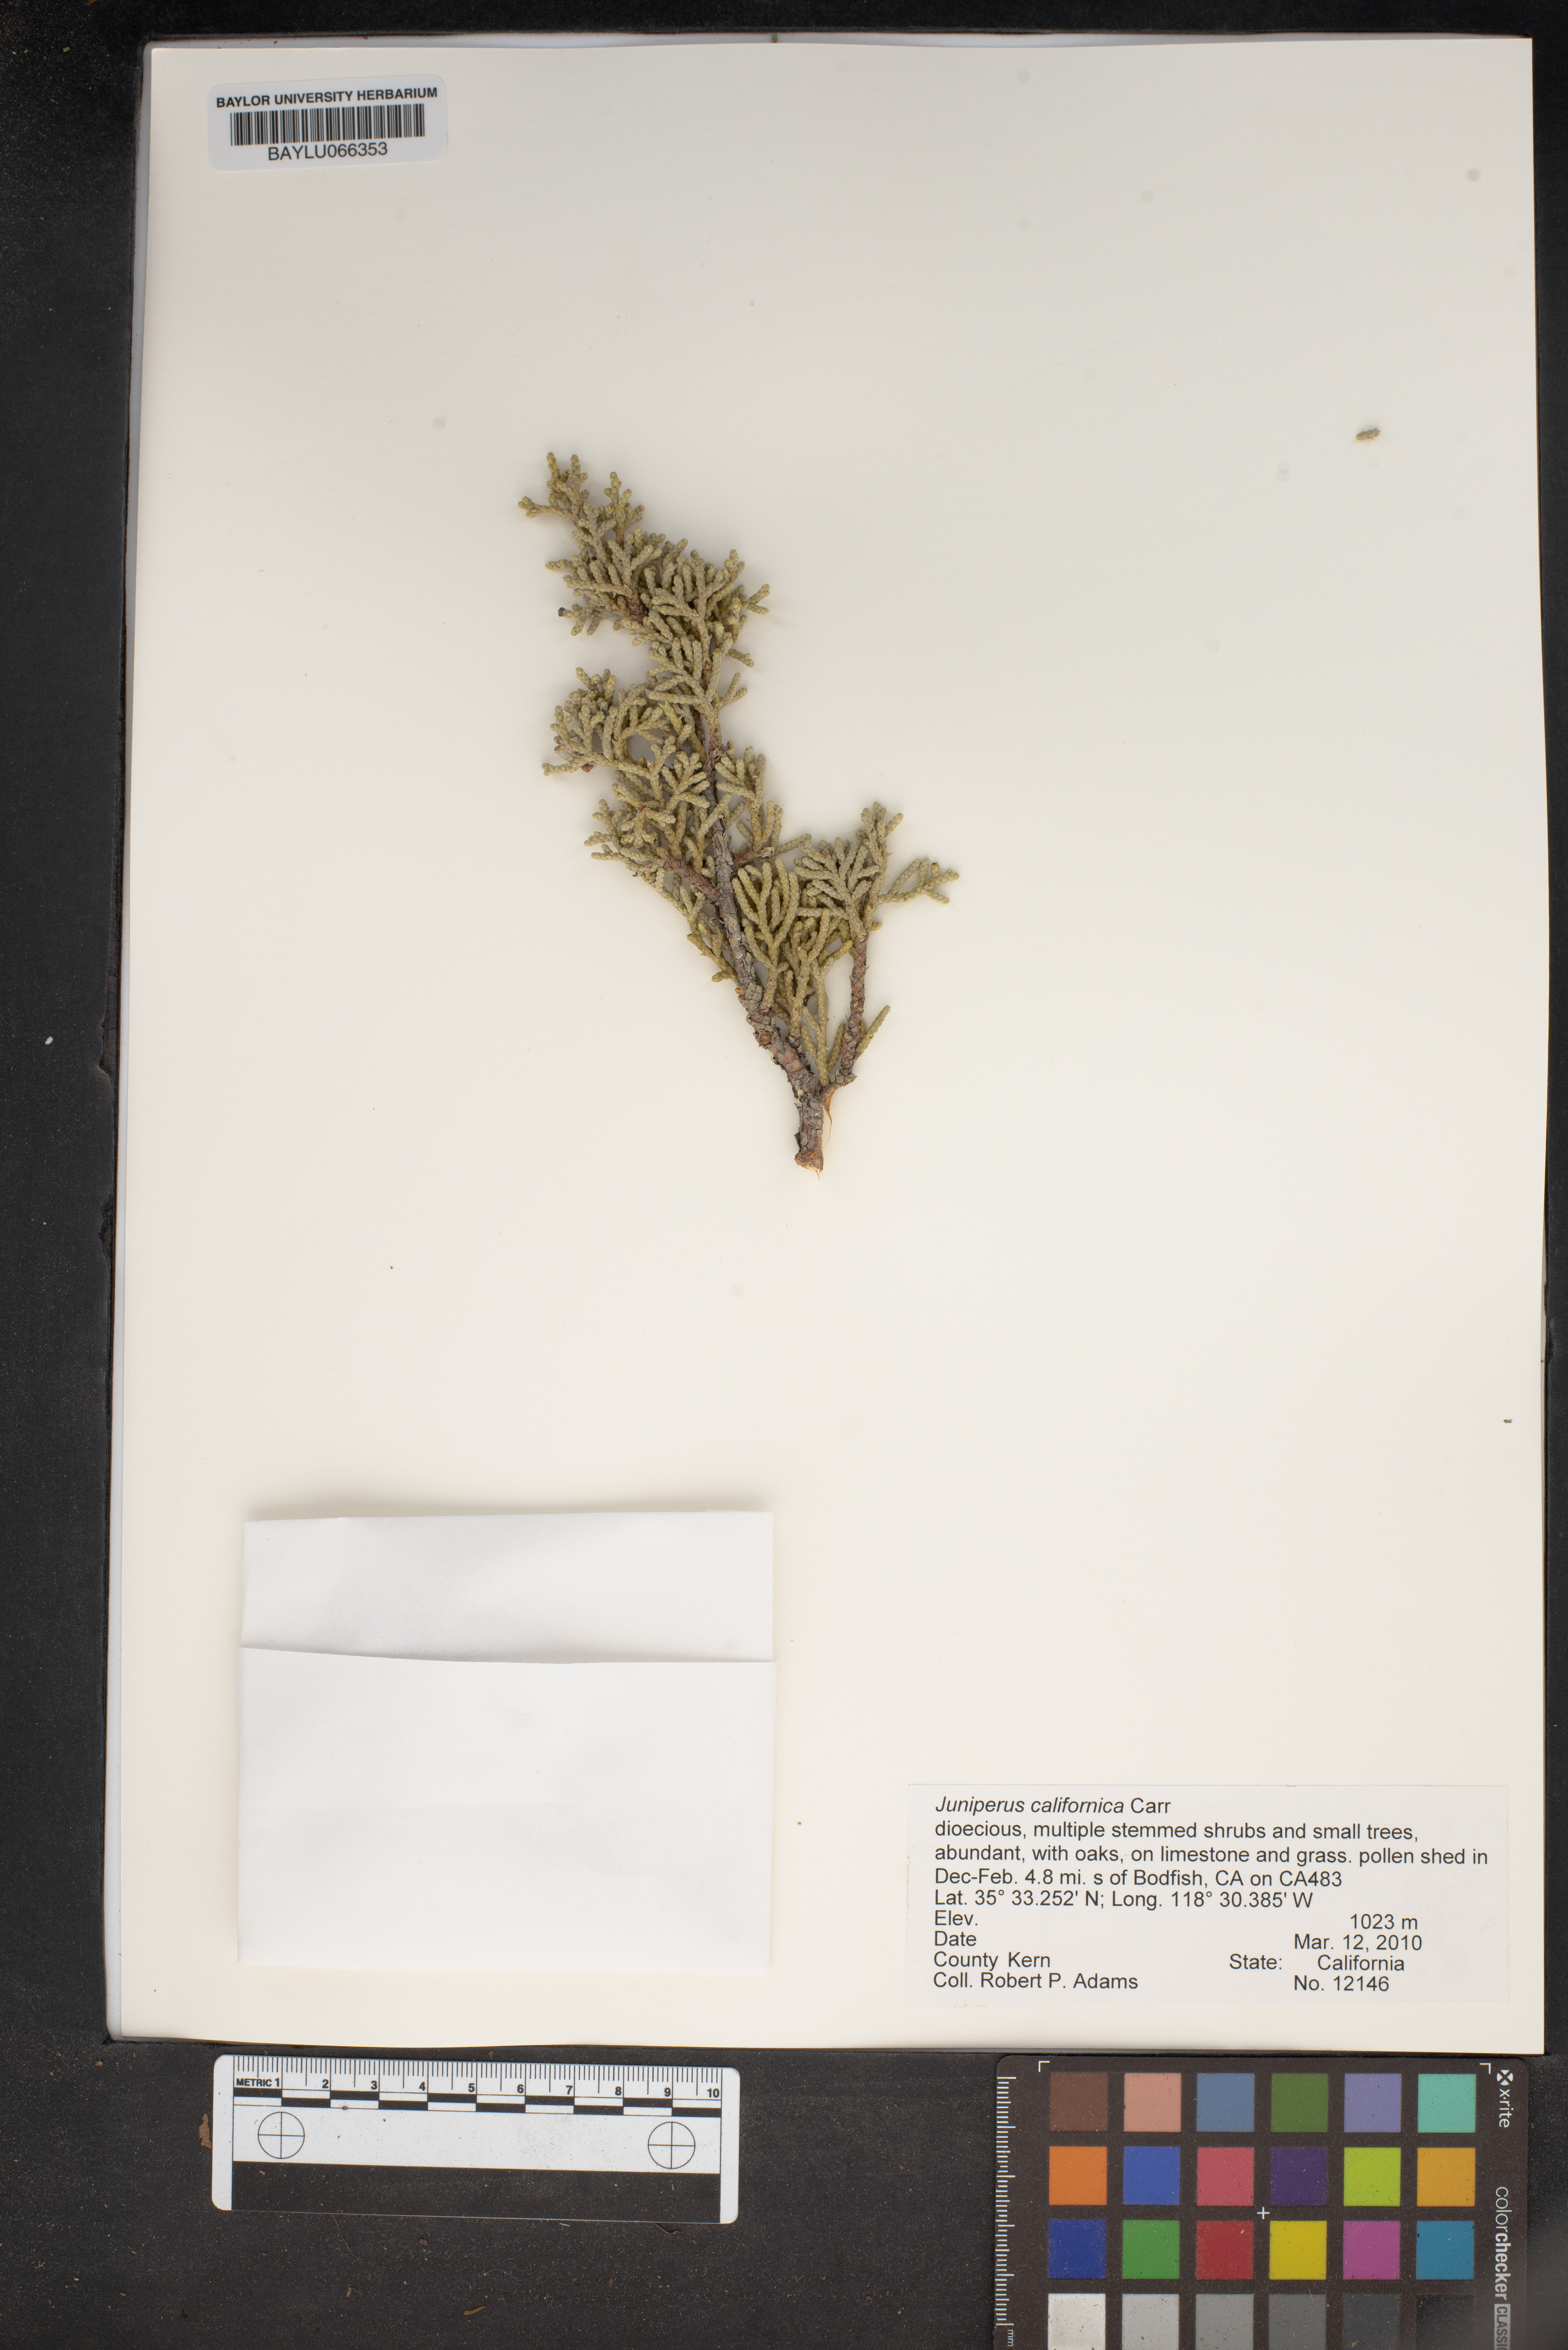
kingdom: Plantae
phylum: Tracheophyta
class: Pinopsida
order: Pinales
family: Cupressaceae
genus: Juniperus
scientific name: Juniperus californica
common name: California juniper
